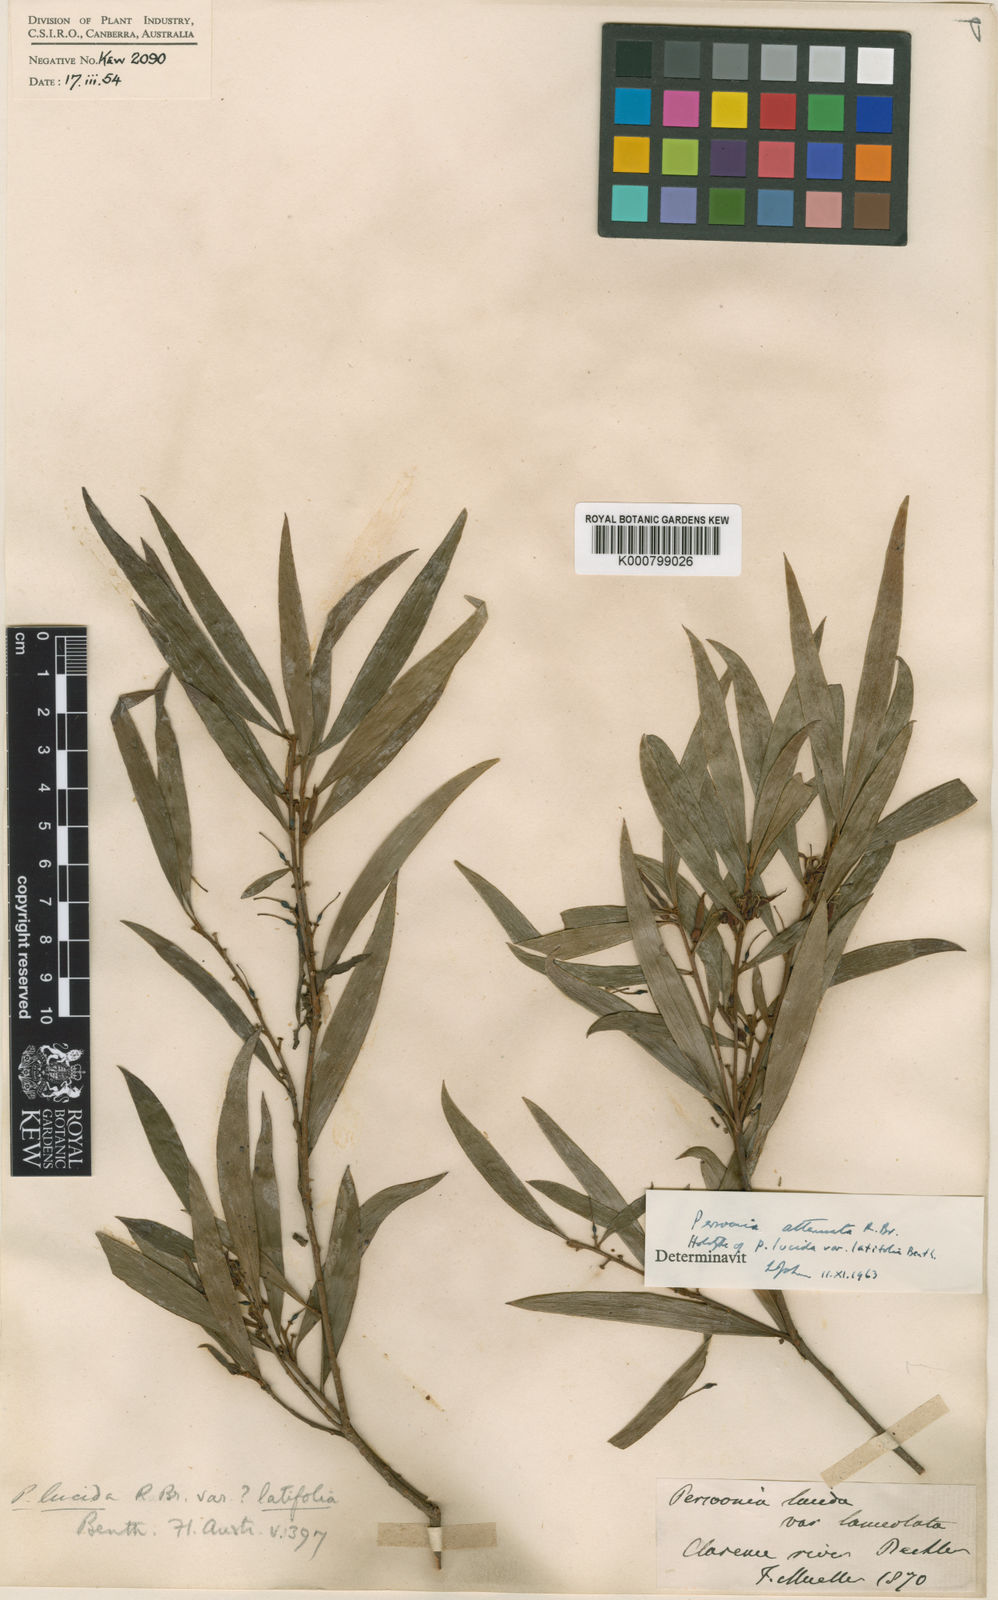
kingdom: Plantae
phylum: Tracheophyta
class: Magnoliopsida
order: Proteales
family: Proteaceae
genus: Persoonia
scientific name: Persoonia
